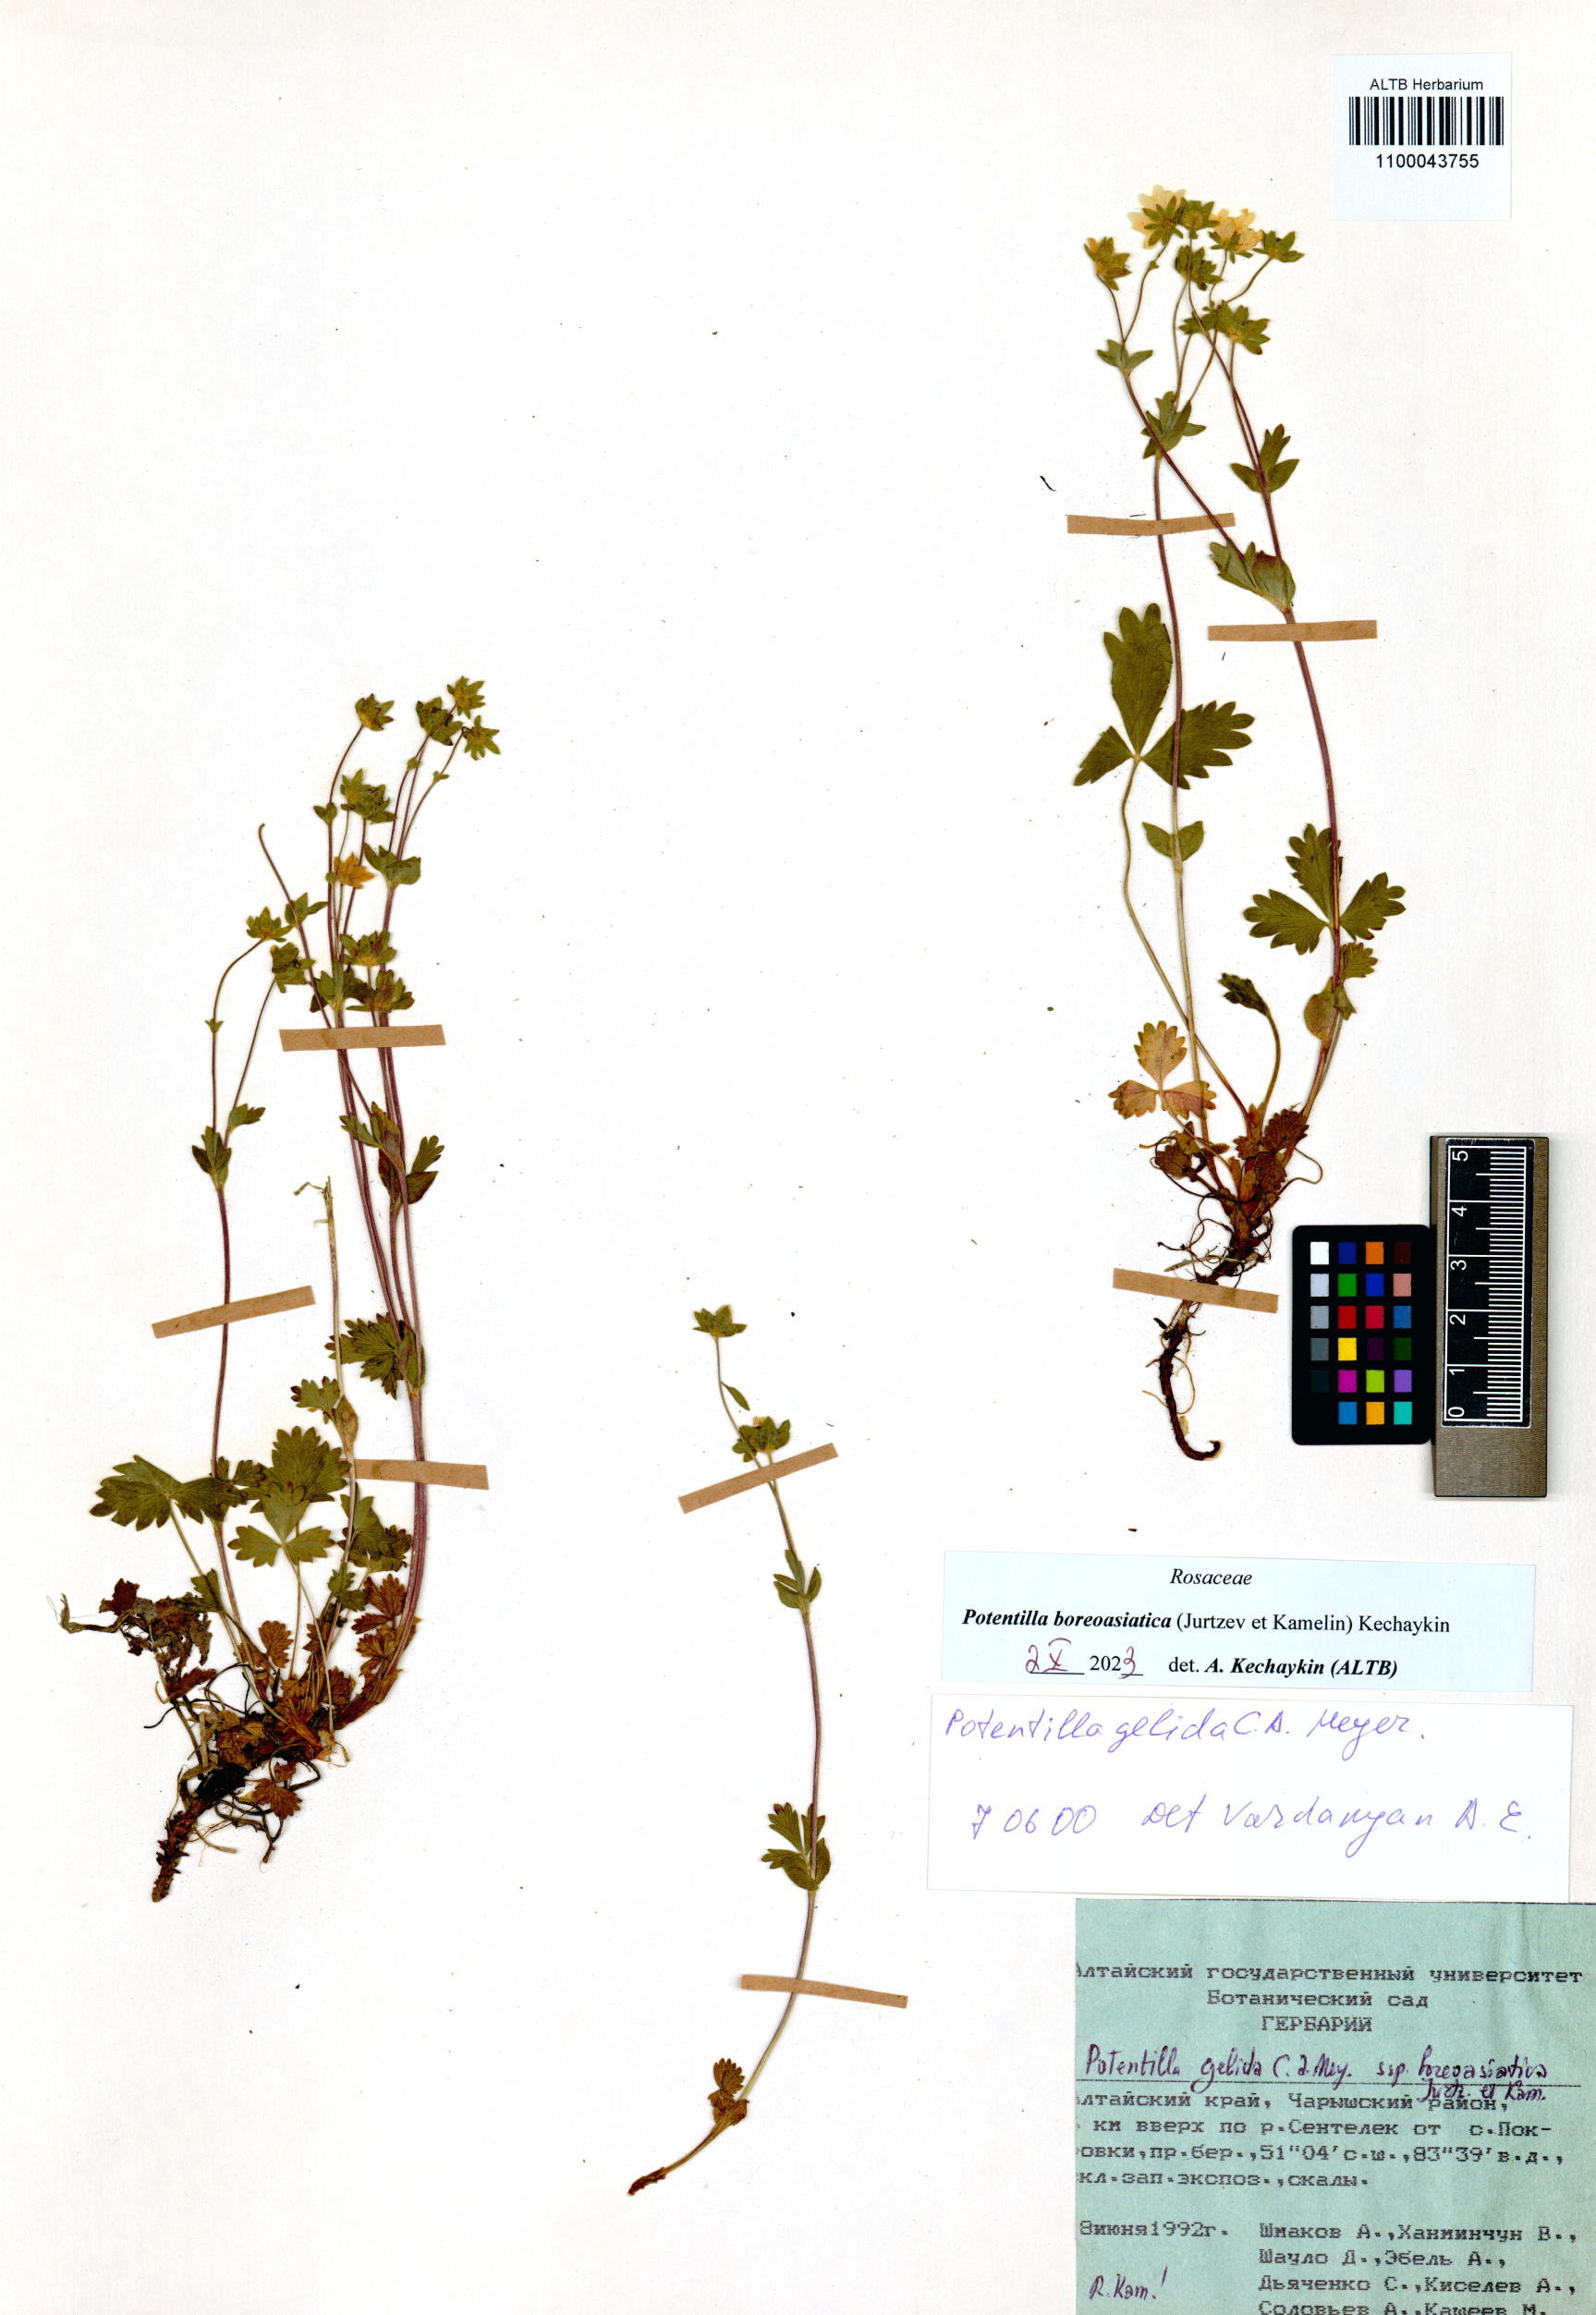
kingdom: Plantae
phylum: Tracheophyta
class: Magnoliopsida
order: Rosales
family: Rosaceae
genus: Potentilla
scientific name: Potentilla
